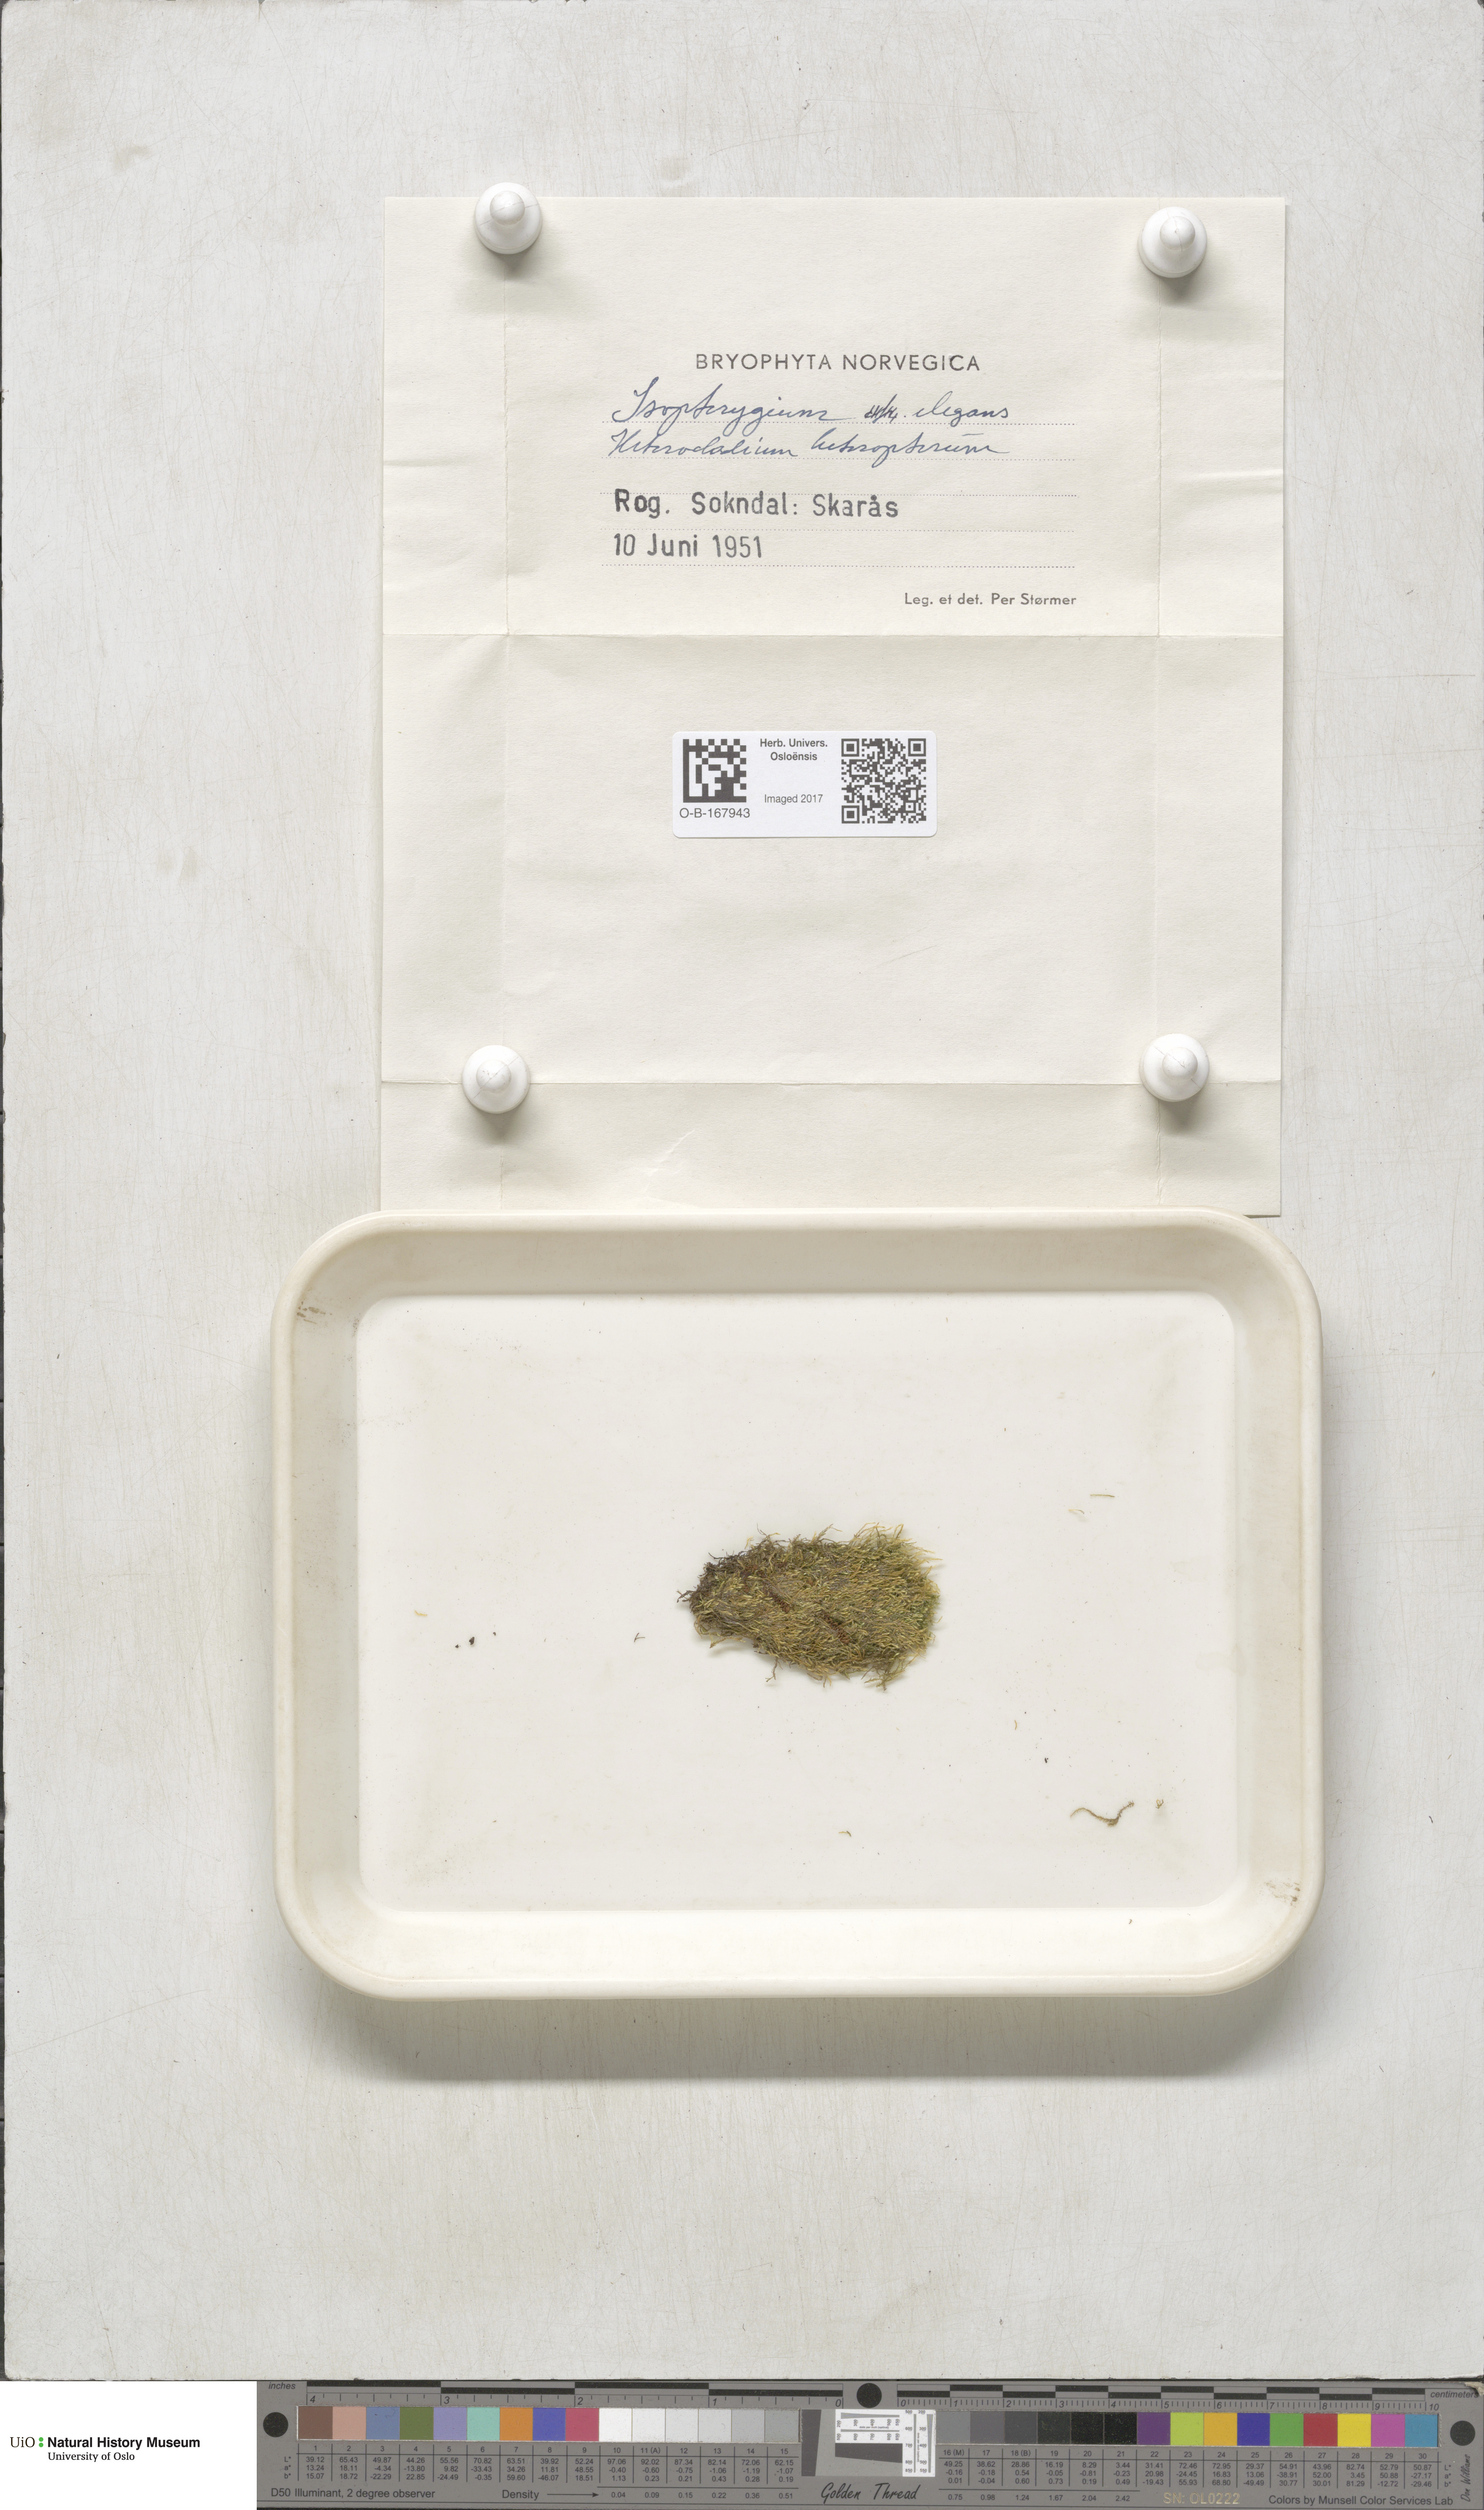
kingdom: Plantae
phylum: Bryophyta
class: Bryopsida
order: Hypnales
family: Plagiotheciaceae
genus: Pseudotaxiphyllum
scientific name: Pseudotaxiphyllum elegans
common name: Elegant silk moss
